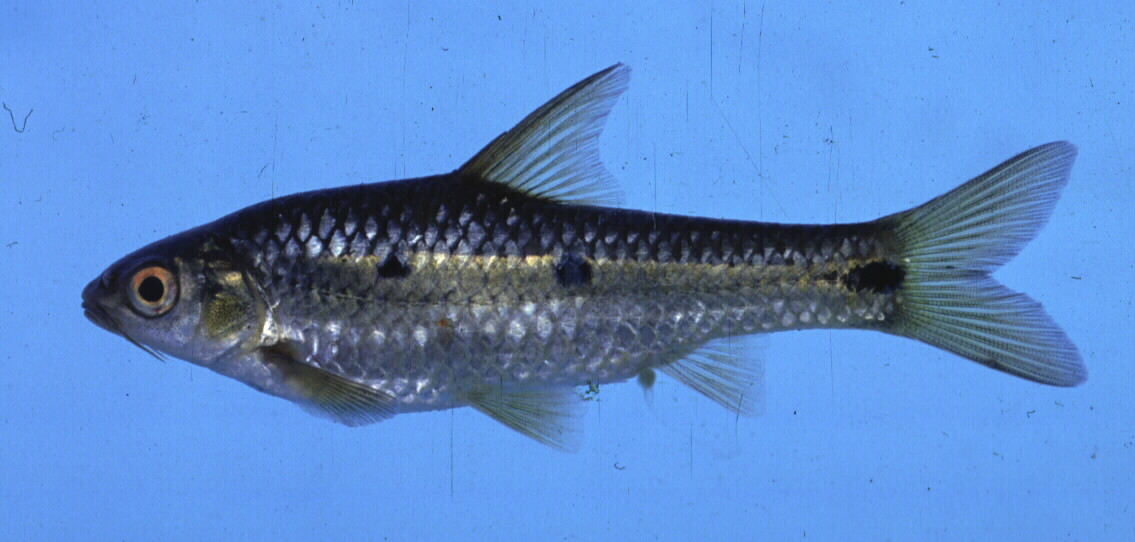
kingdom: Animalia
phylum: Chordata
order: Cypriniformes
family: Cyprinidae
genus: Enteromius
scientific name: Enteromius trimaculatus
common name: Threespot barb
